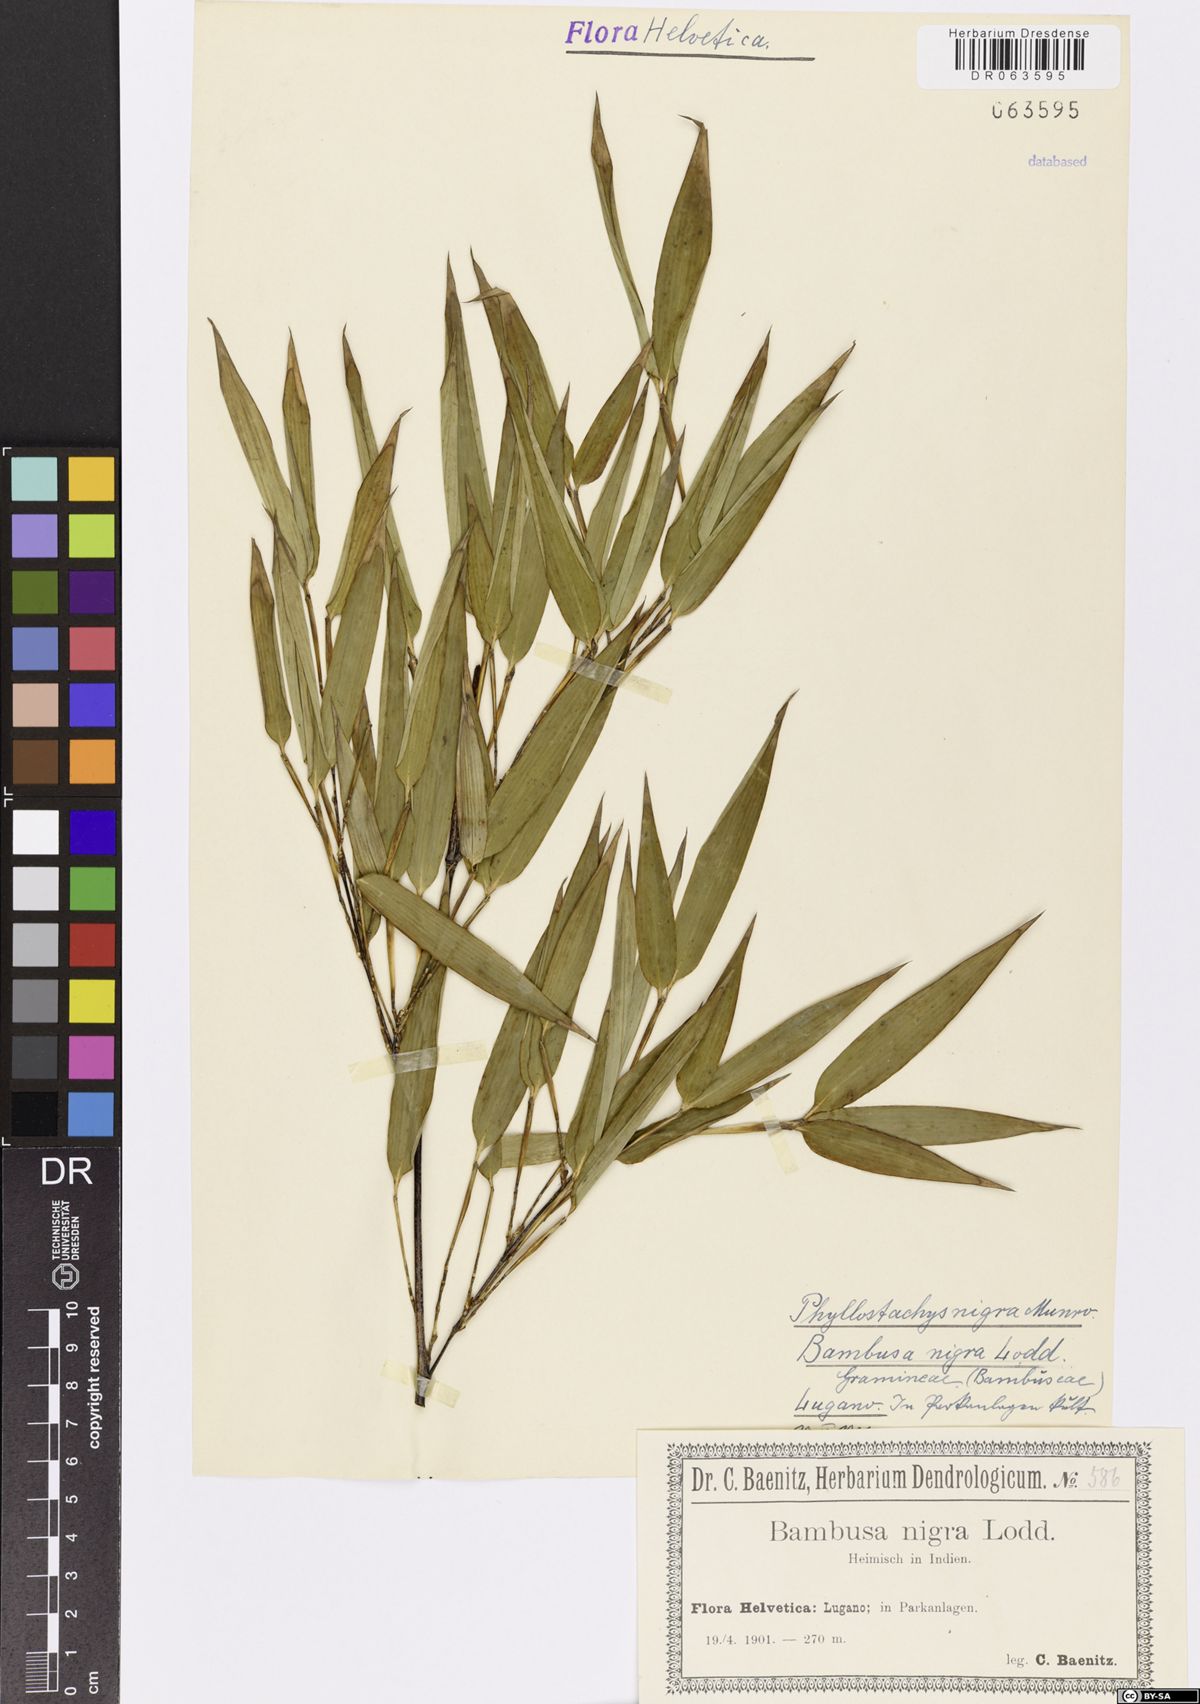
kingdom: Plantae
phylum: Tracheophyta
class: Liliopsida
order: Poales
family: Poaceae
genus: Phyllostachys
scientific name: Phyllostachys nigra
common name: Black bamboo
